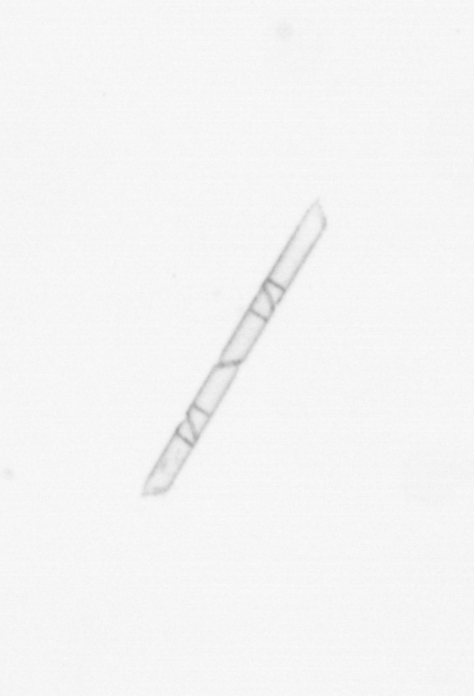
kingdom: Chromista
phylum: Ochrophyta
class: Bacillariophyceae
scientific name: Bacillariophyceae
